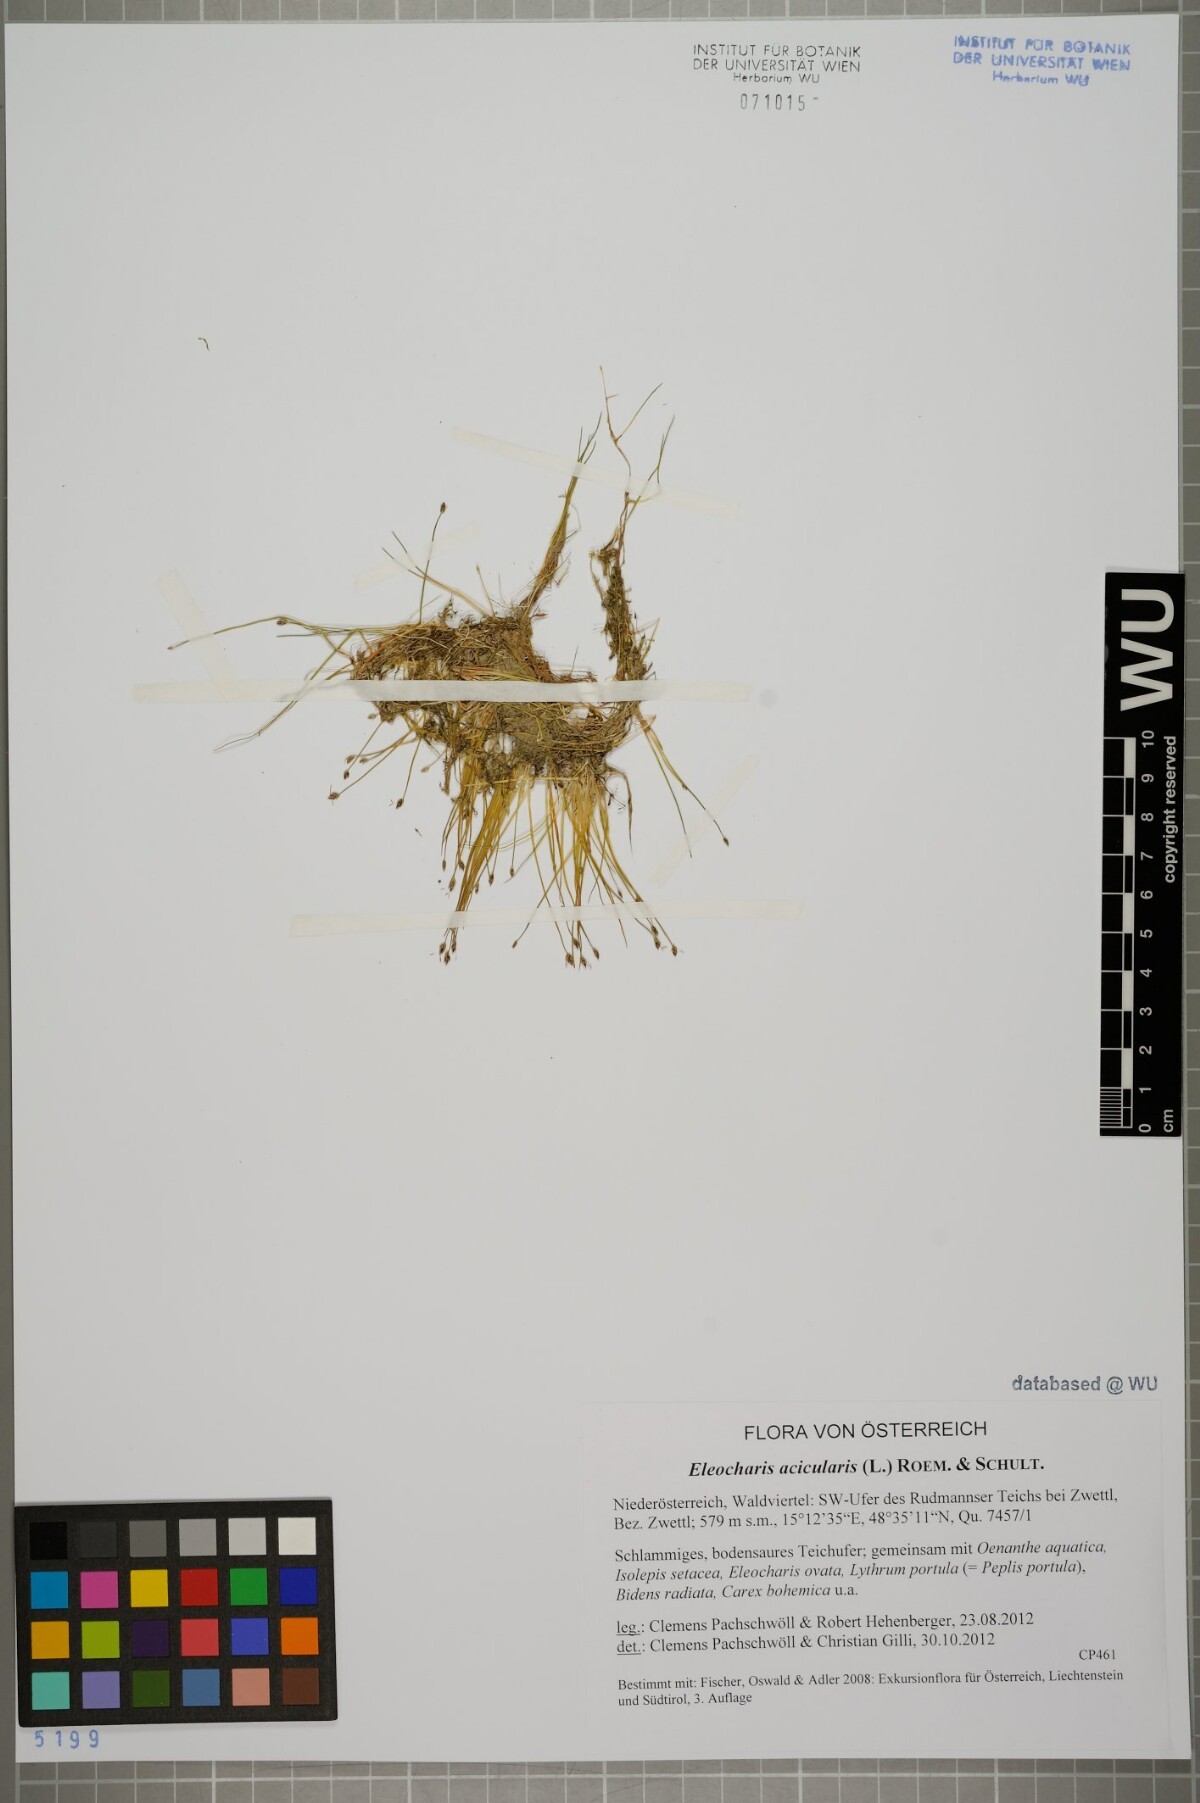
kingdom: Plantae
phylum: Tracheophyta
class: Liliopsida
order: Poales
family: Cyperaceae
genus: Eleocharis
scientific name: Eleocharis acicularis
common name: Needle spike-rush
